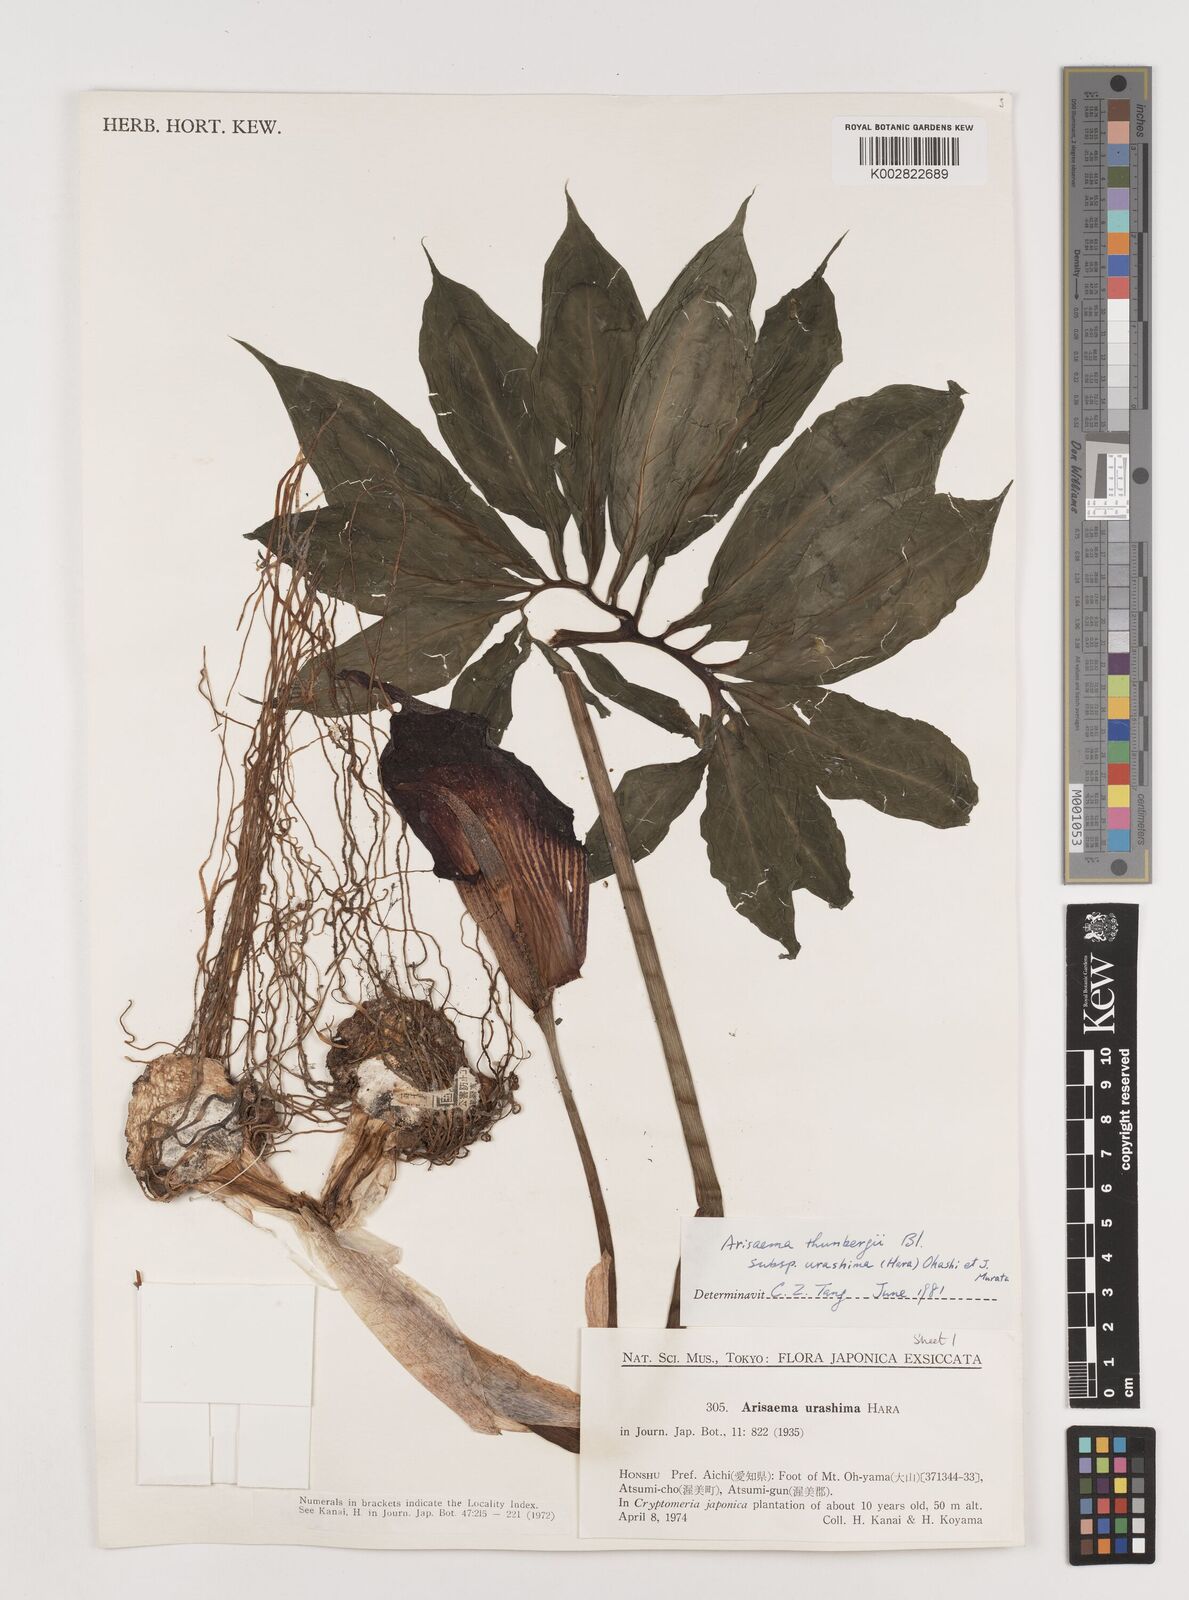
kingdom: Plantae
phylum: Tracheophyta
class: Liliopsida
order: Alismatales
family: Araceae
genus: Arisaema
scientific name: Arisaema thunbergii
